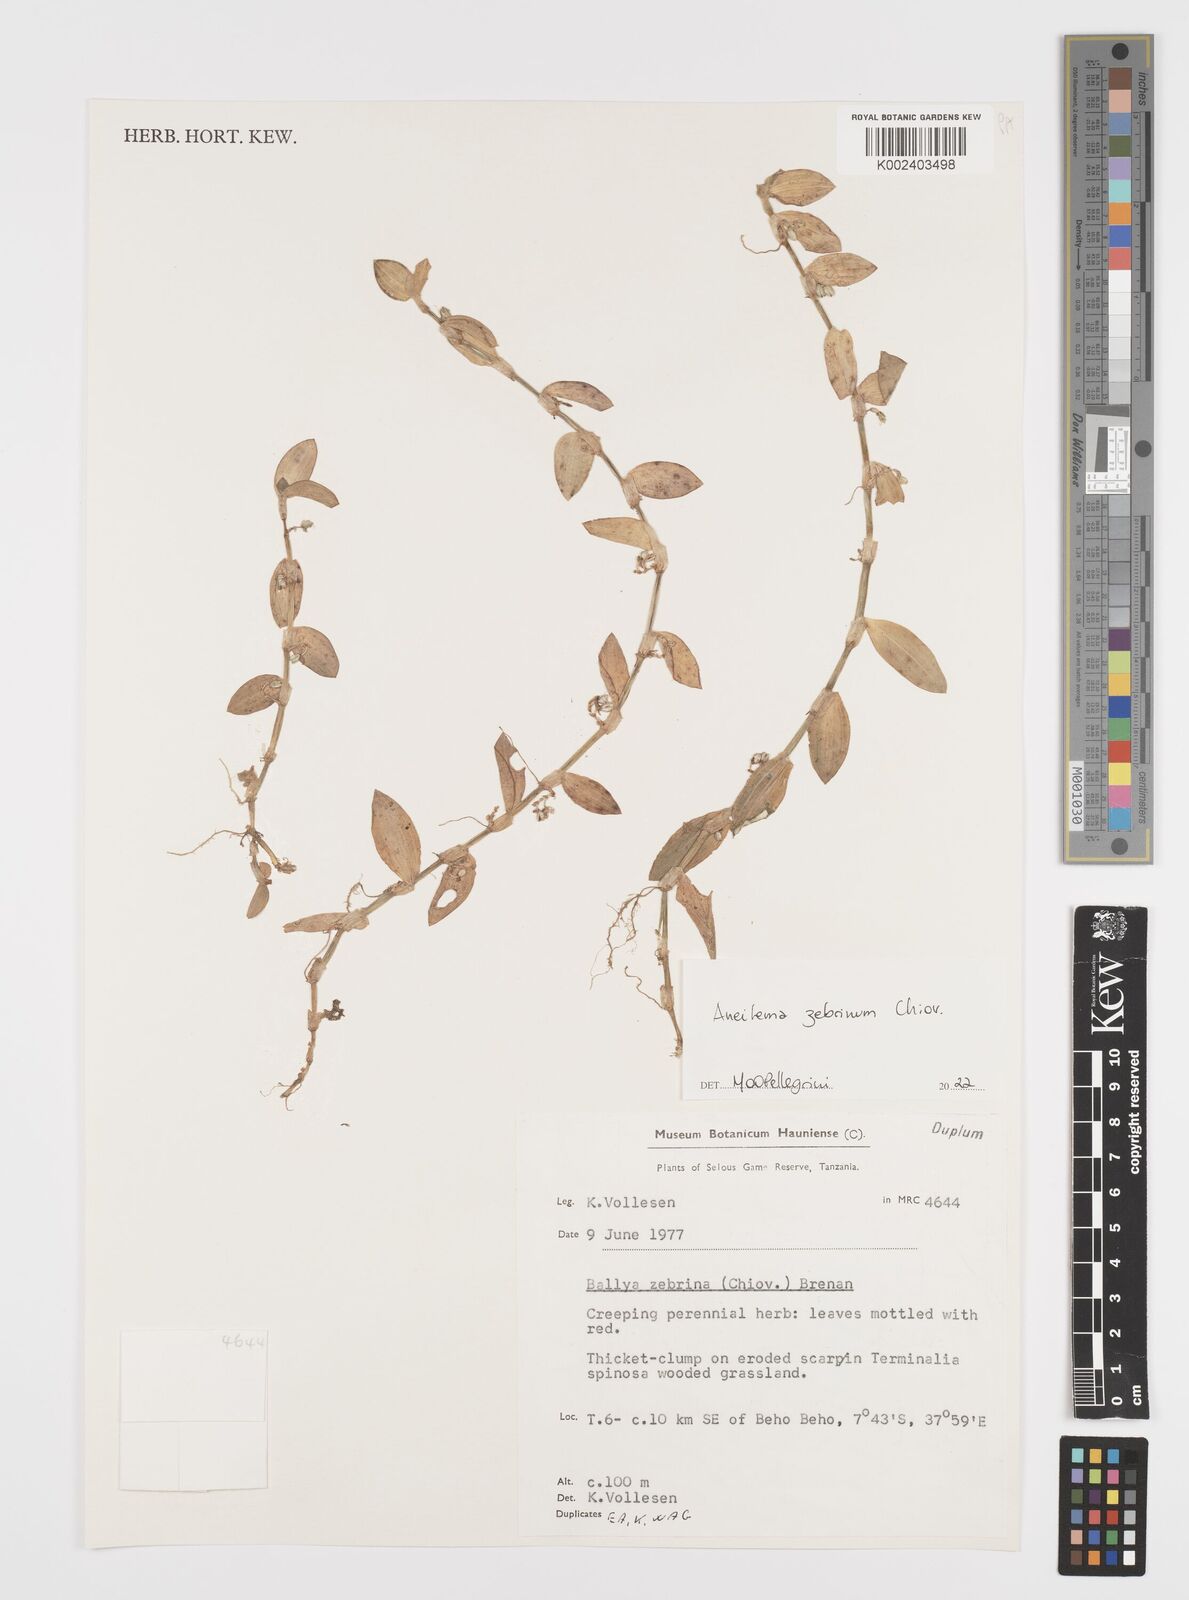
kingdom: Plantae
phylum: Tracheophyta
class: Liliopsida
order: Commelinales
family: Commelinaceae
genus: Aneilema
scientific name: Aneilema zebrinum
